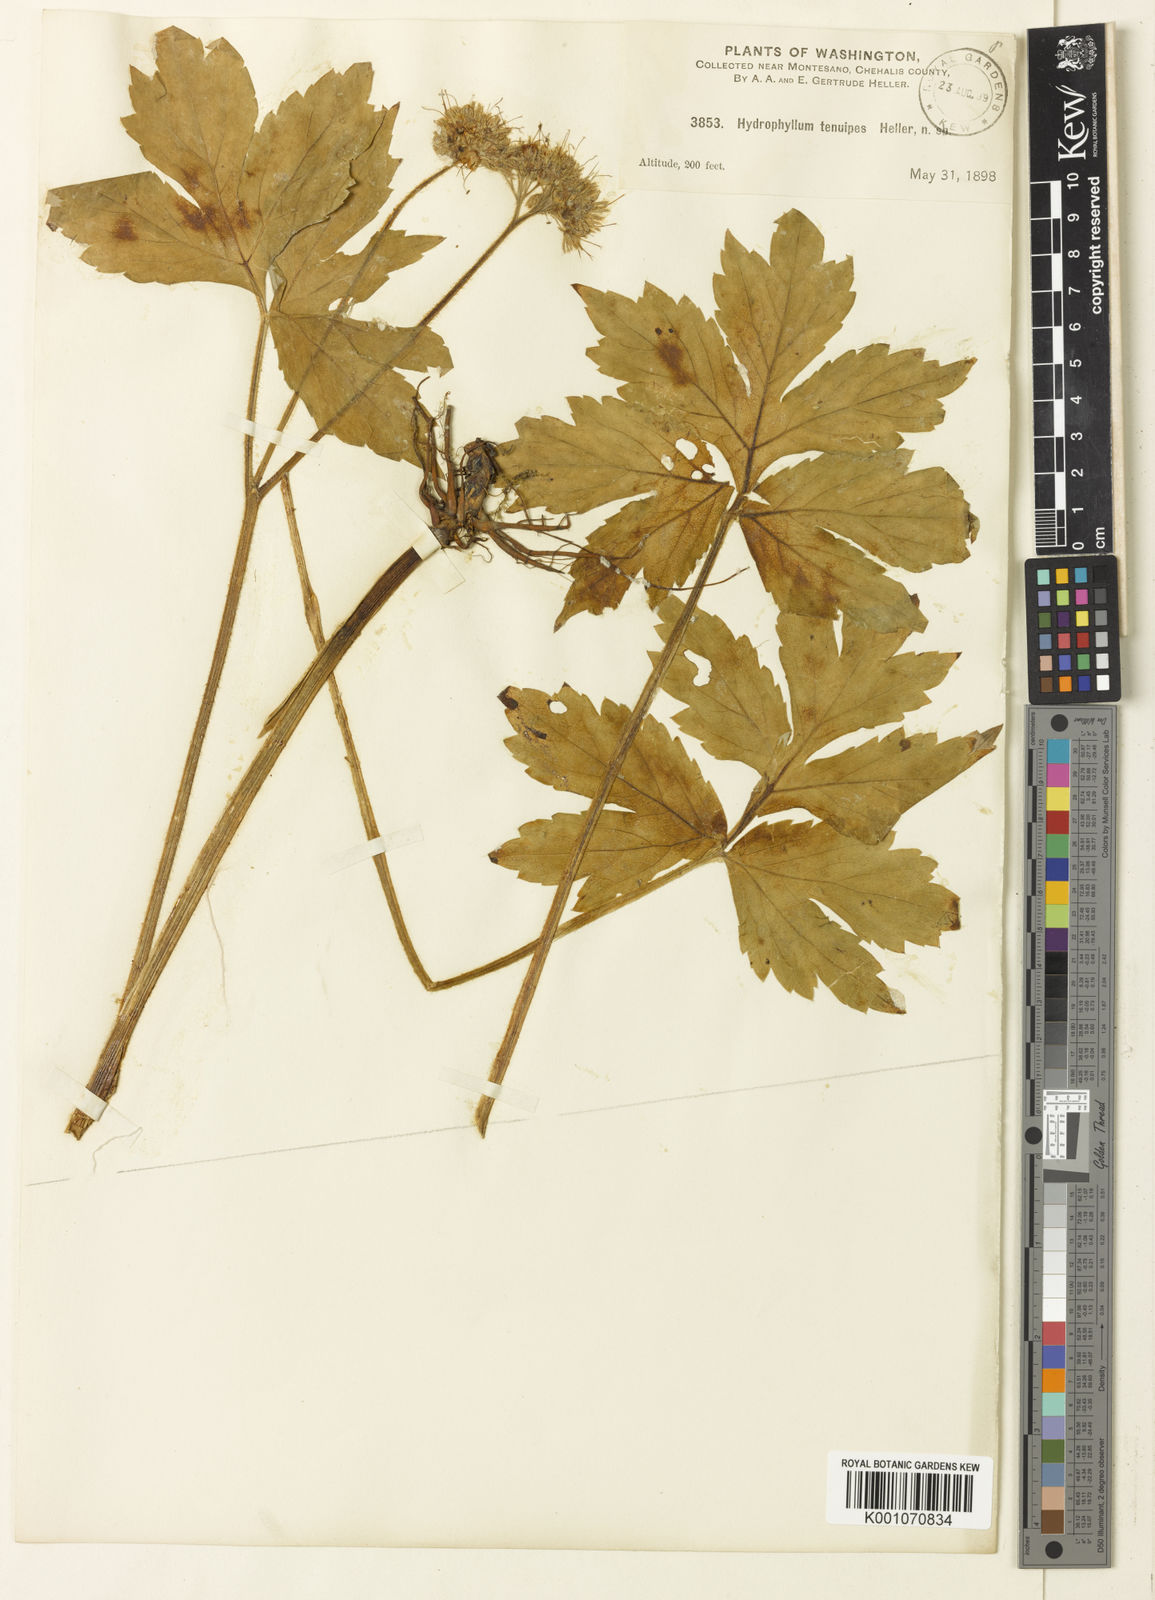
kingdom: Plantae
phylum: Tracheophyta
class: Magnoliopsida
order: Boraginales
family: Hydrophyllaceae
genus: Hydrophyllum
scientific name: Hydrophyllum tenuipes
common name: Pacific waterleaf
